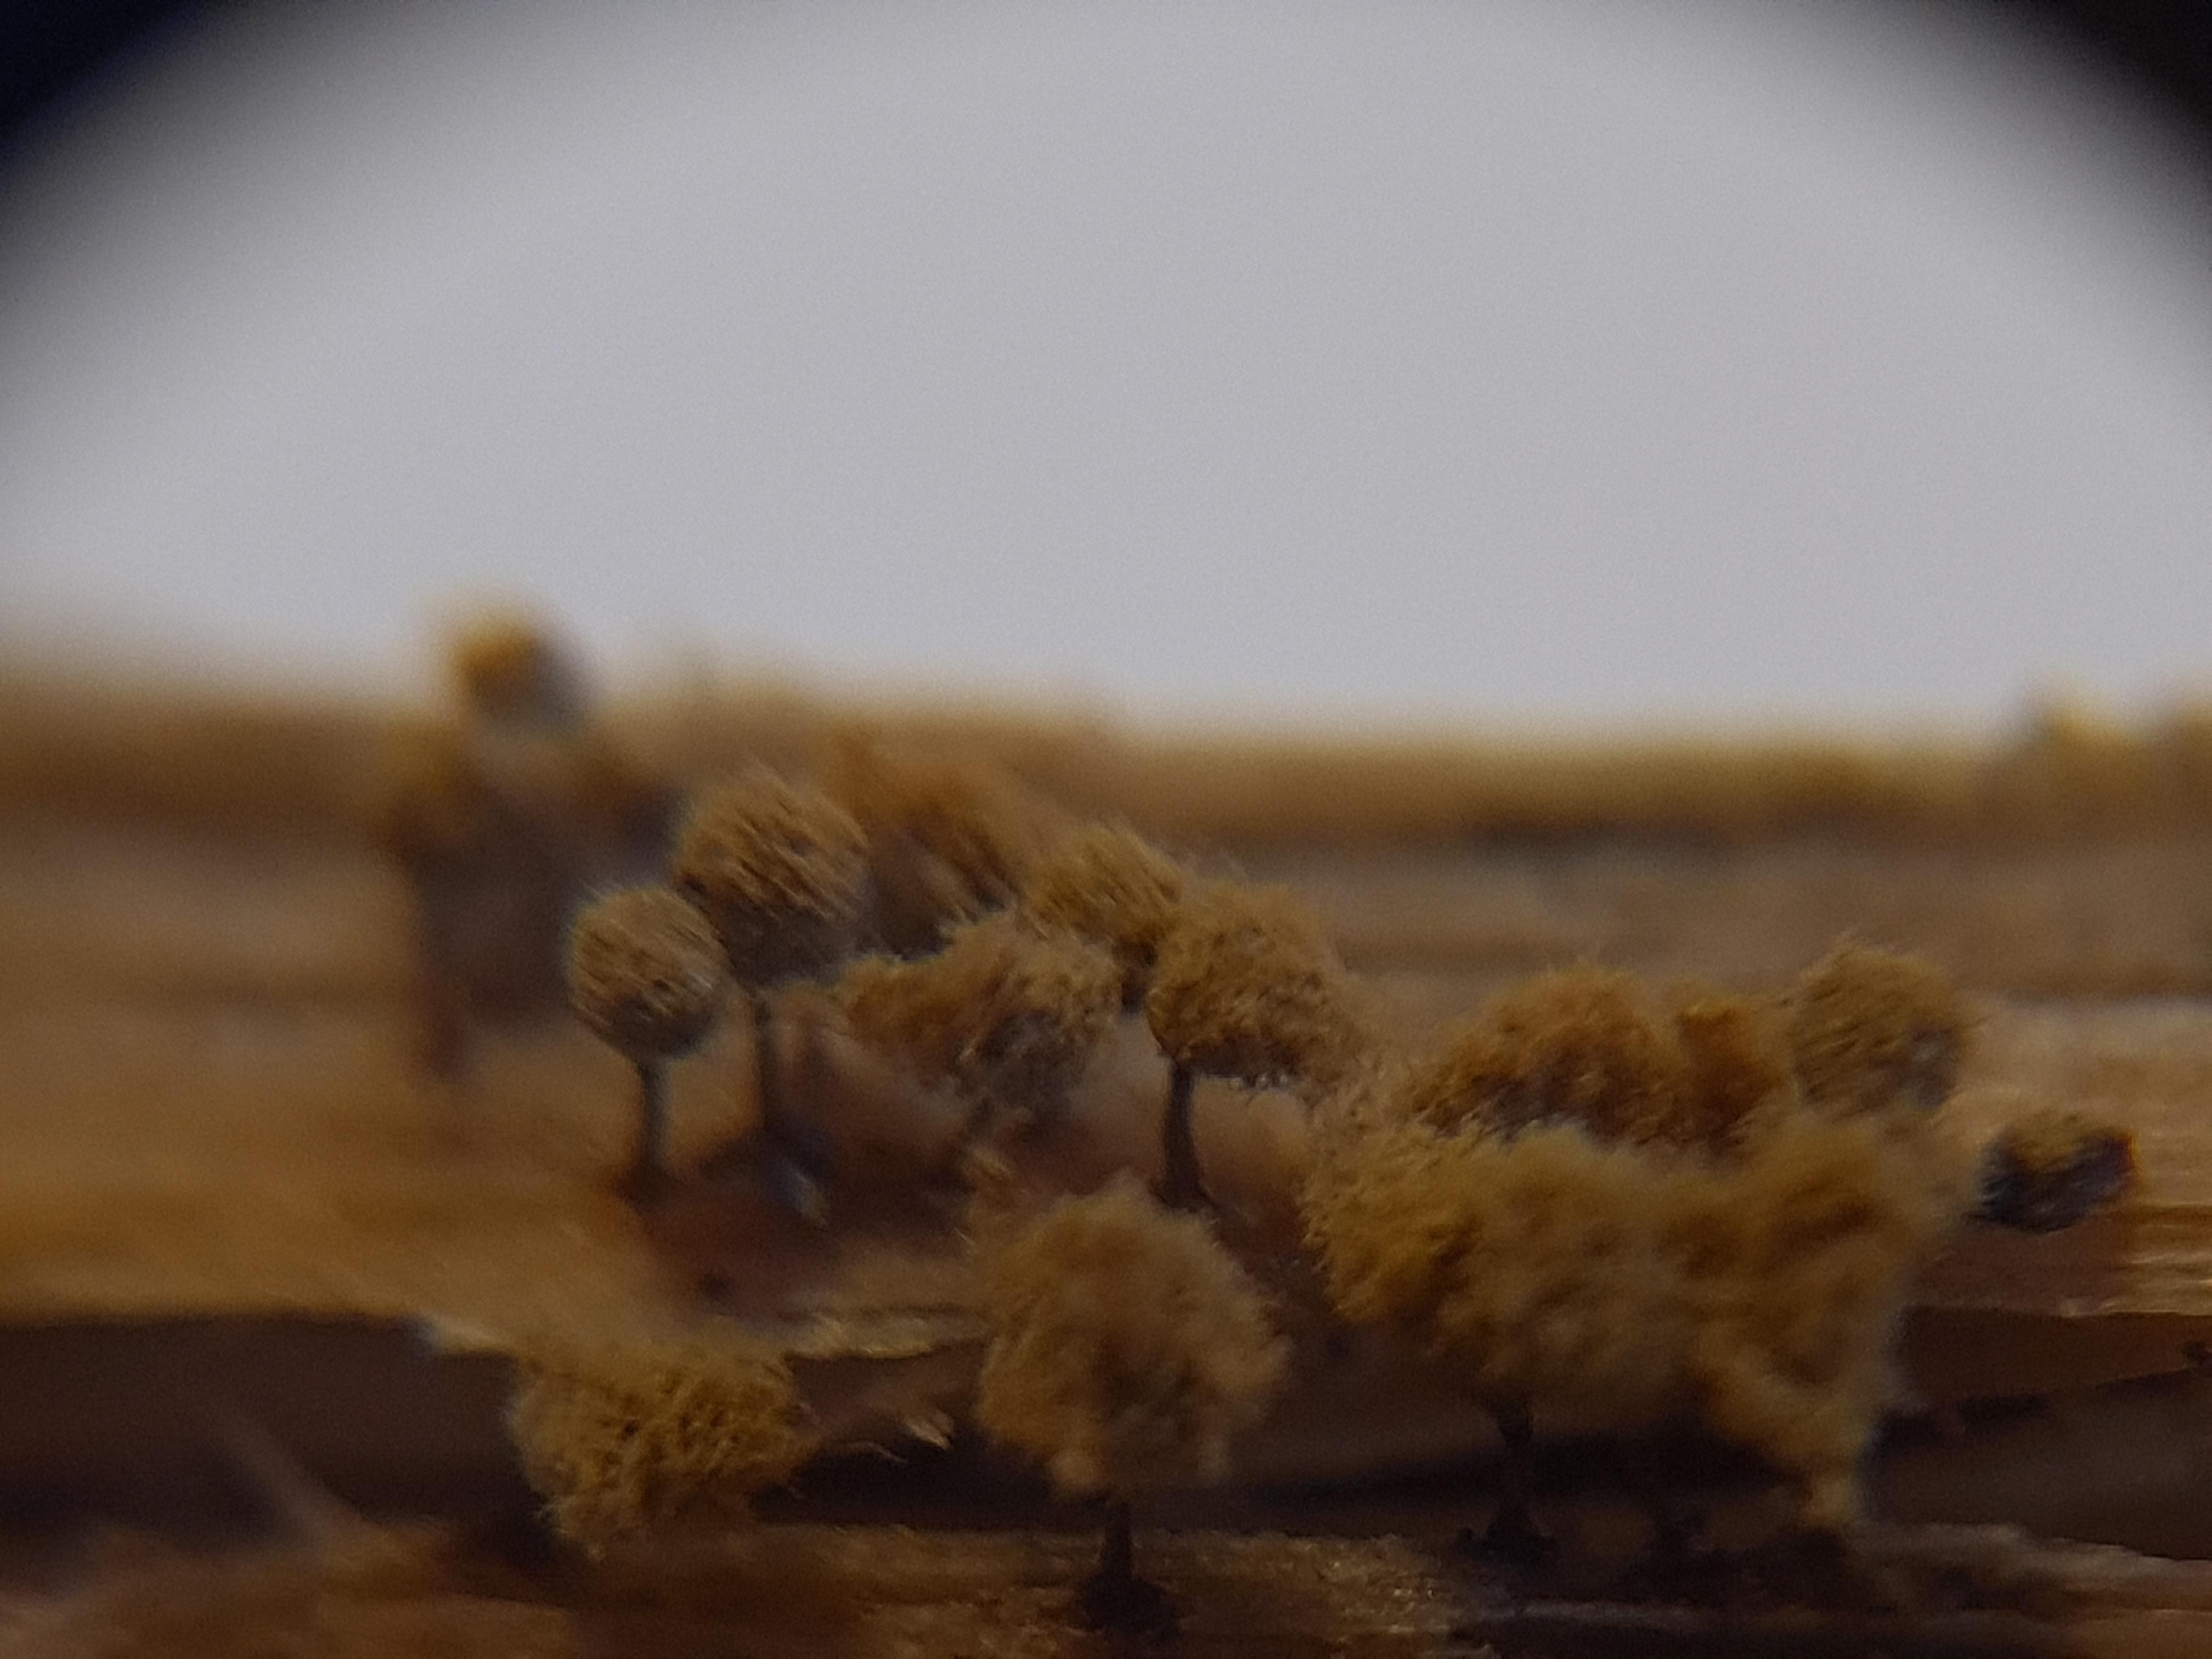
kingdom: Protozoa
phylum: Mycetozoa
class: Myxomycetes
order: Trichiales
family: Arcyriaceae
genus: Hemitrichia
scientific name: Hemitrichia decipiens
